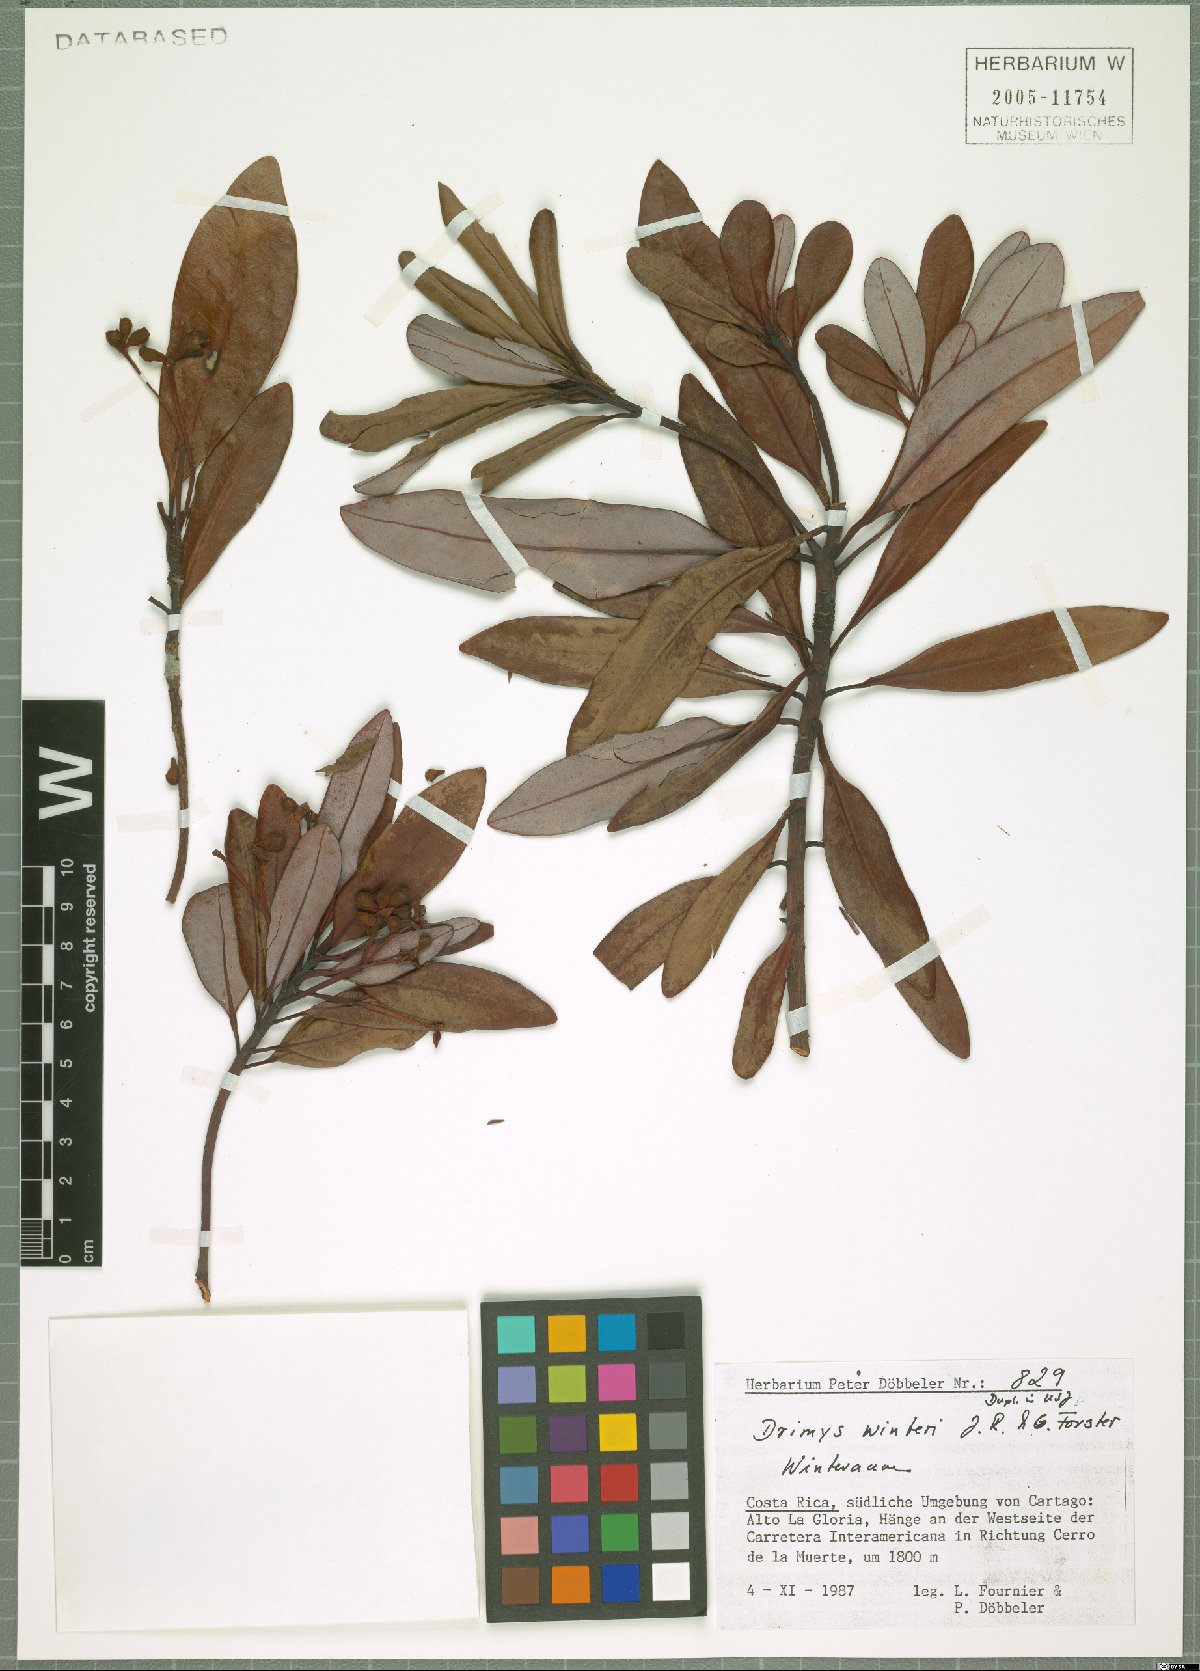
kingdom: Plantae
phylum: Tracheophyta
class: Magnoliopsida
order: Canellales
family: Winteraceae
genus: Drimys
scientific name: Drimys winteri
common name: Winter's-bark
